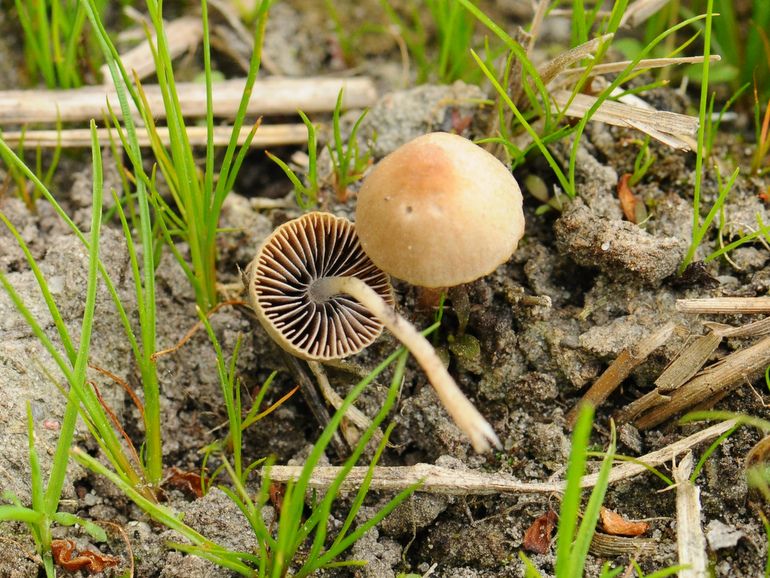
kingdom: Fungi
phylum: Basidiomycota
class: Agaricomycetes
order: Agaricales
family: Psathyrellaceae
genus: Psathyrella
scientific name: Psathyrella longicauda
